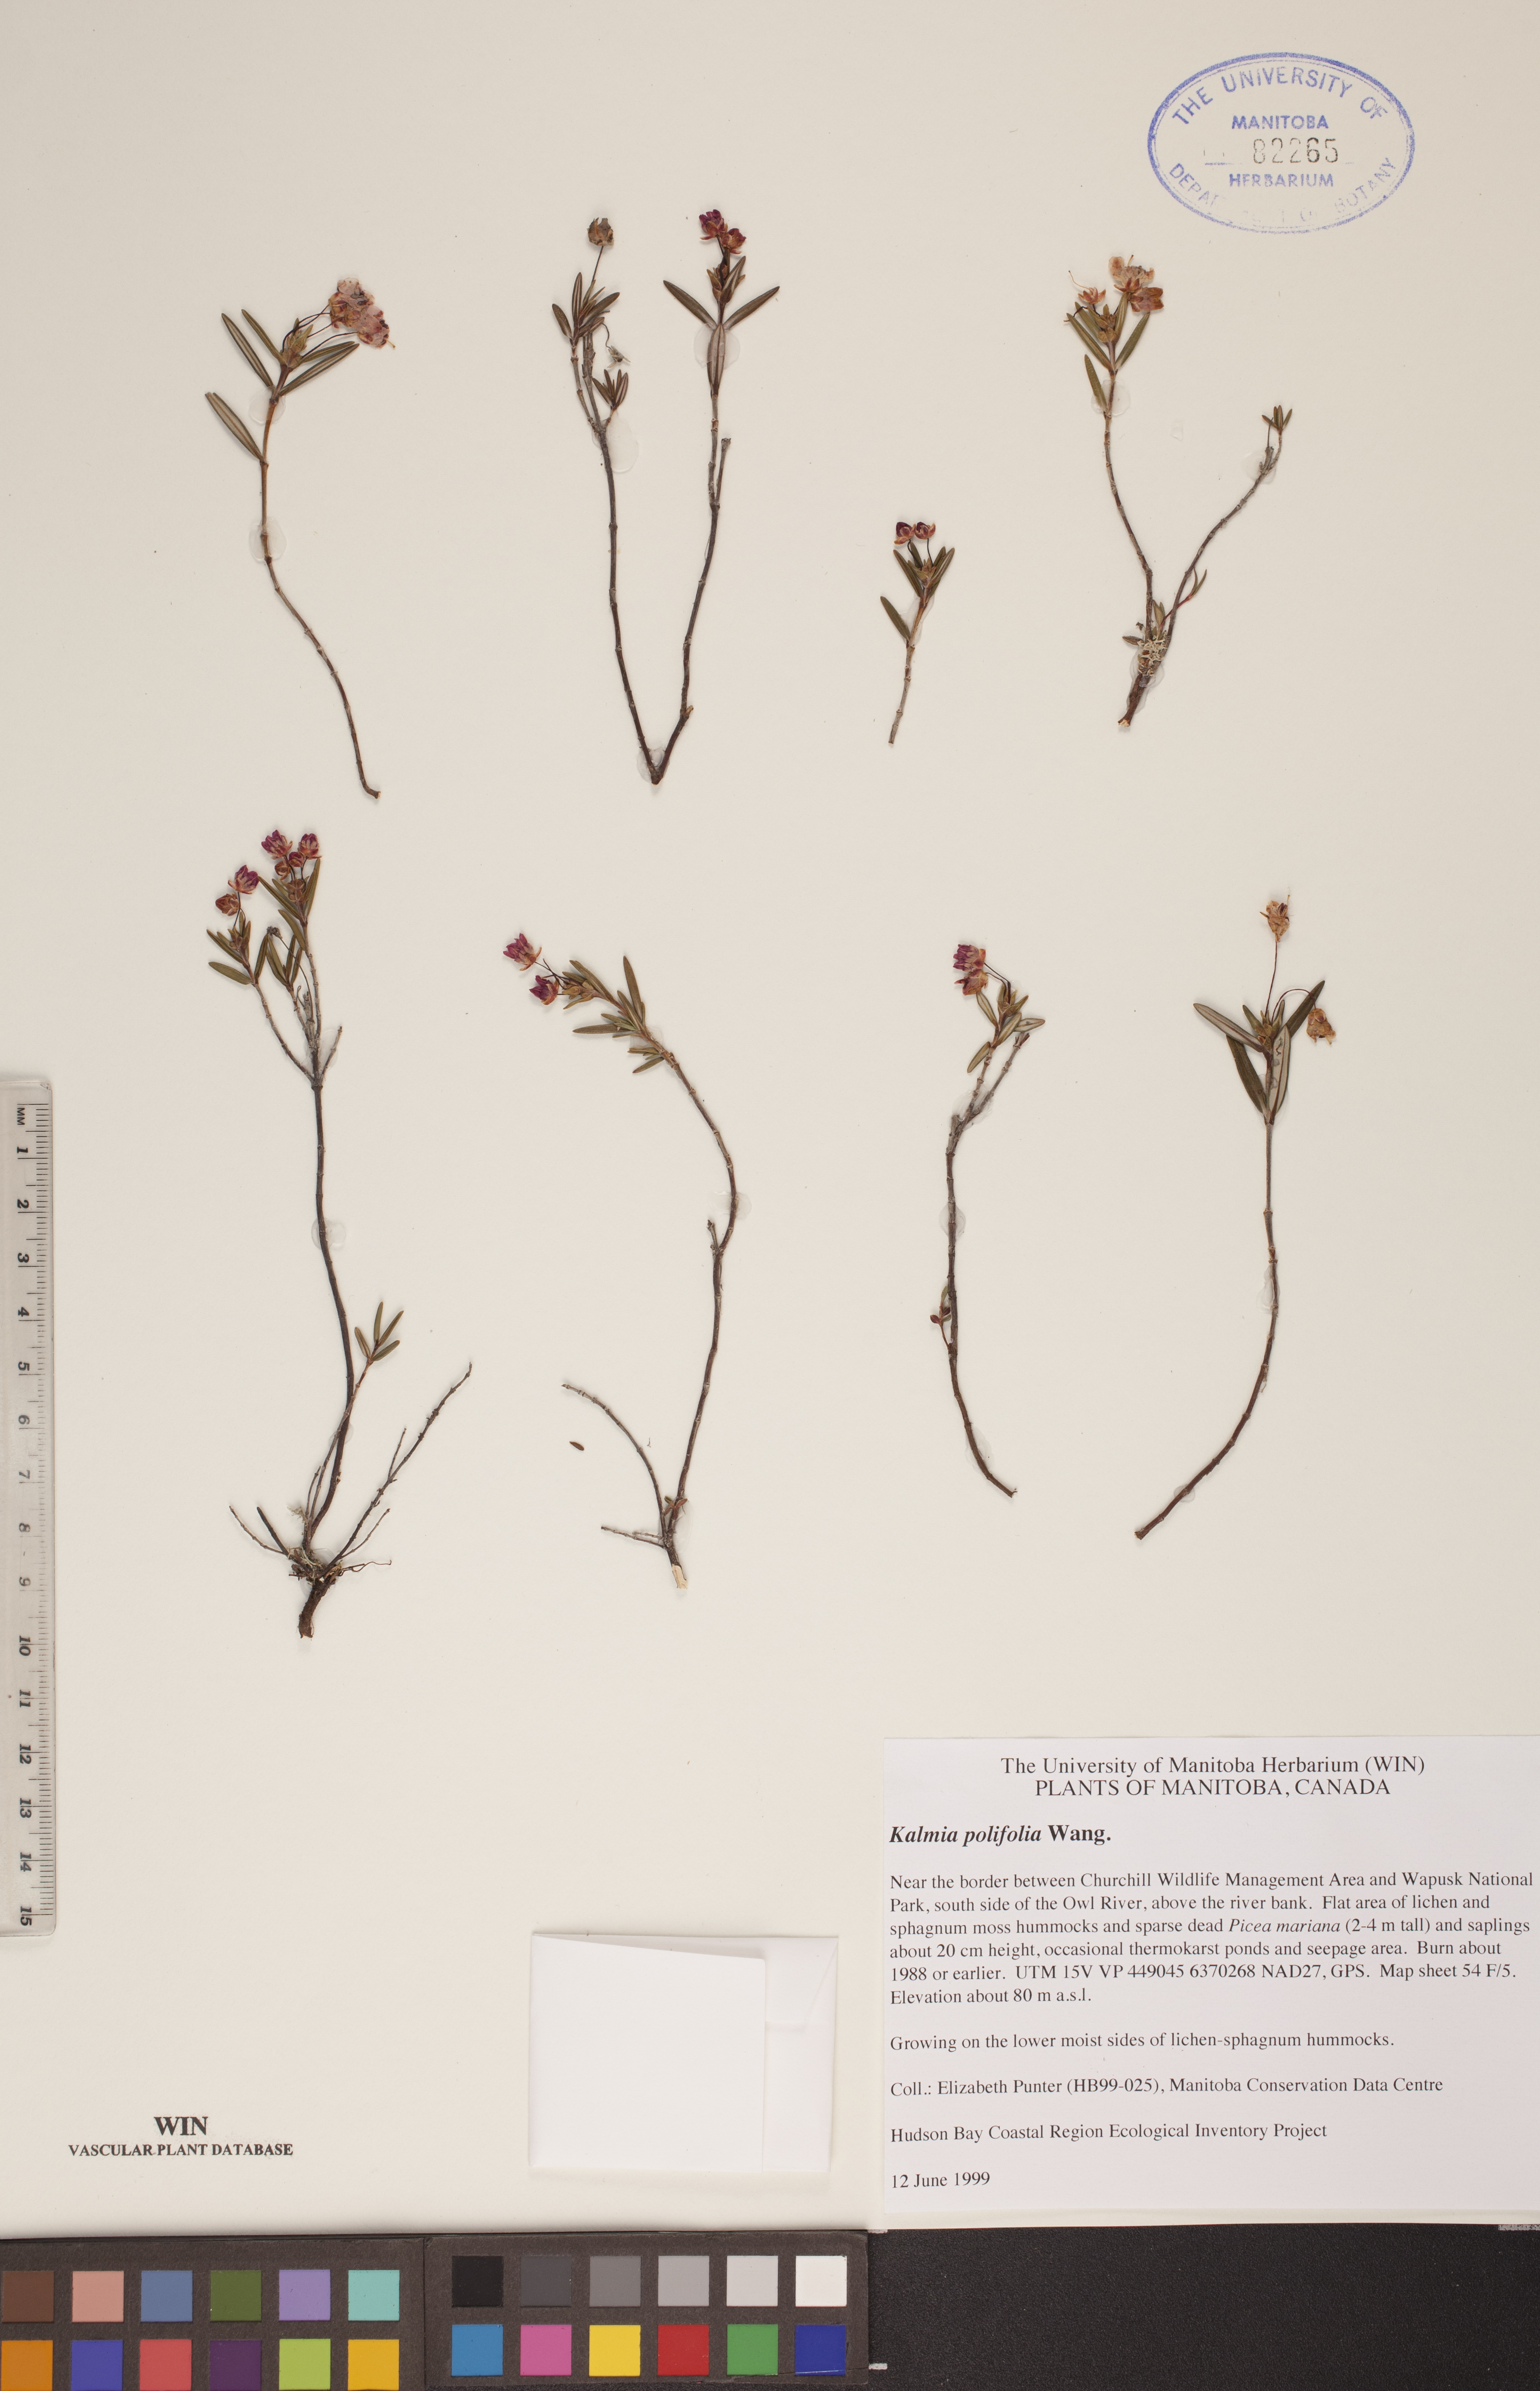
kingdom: Plantae
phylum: Tracheophyta
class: Magnoliopsida
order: Ericales
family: Ericaceae
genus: Kalmia
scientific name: Kalmia polifolia
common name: Bog-laurel
